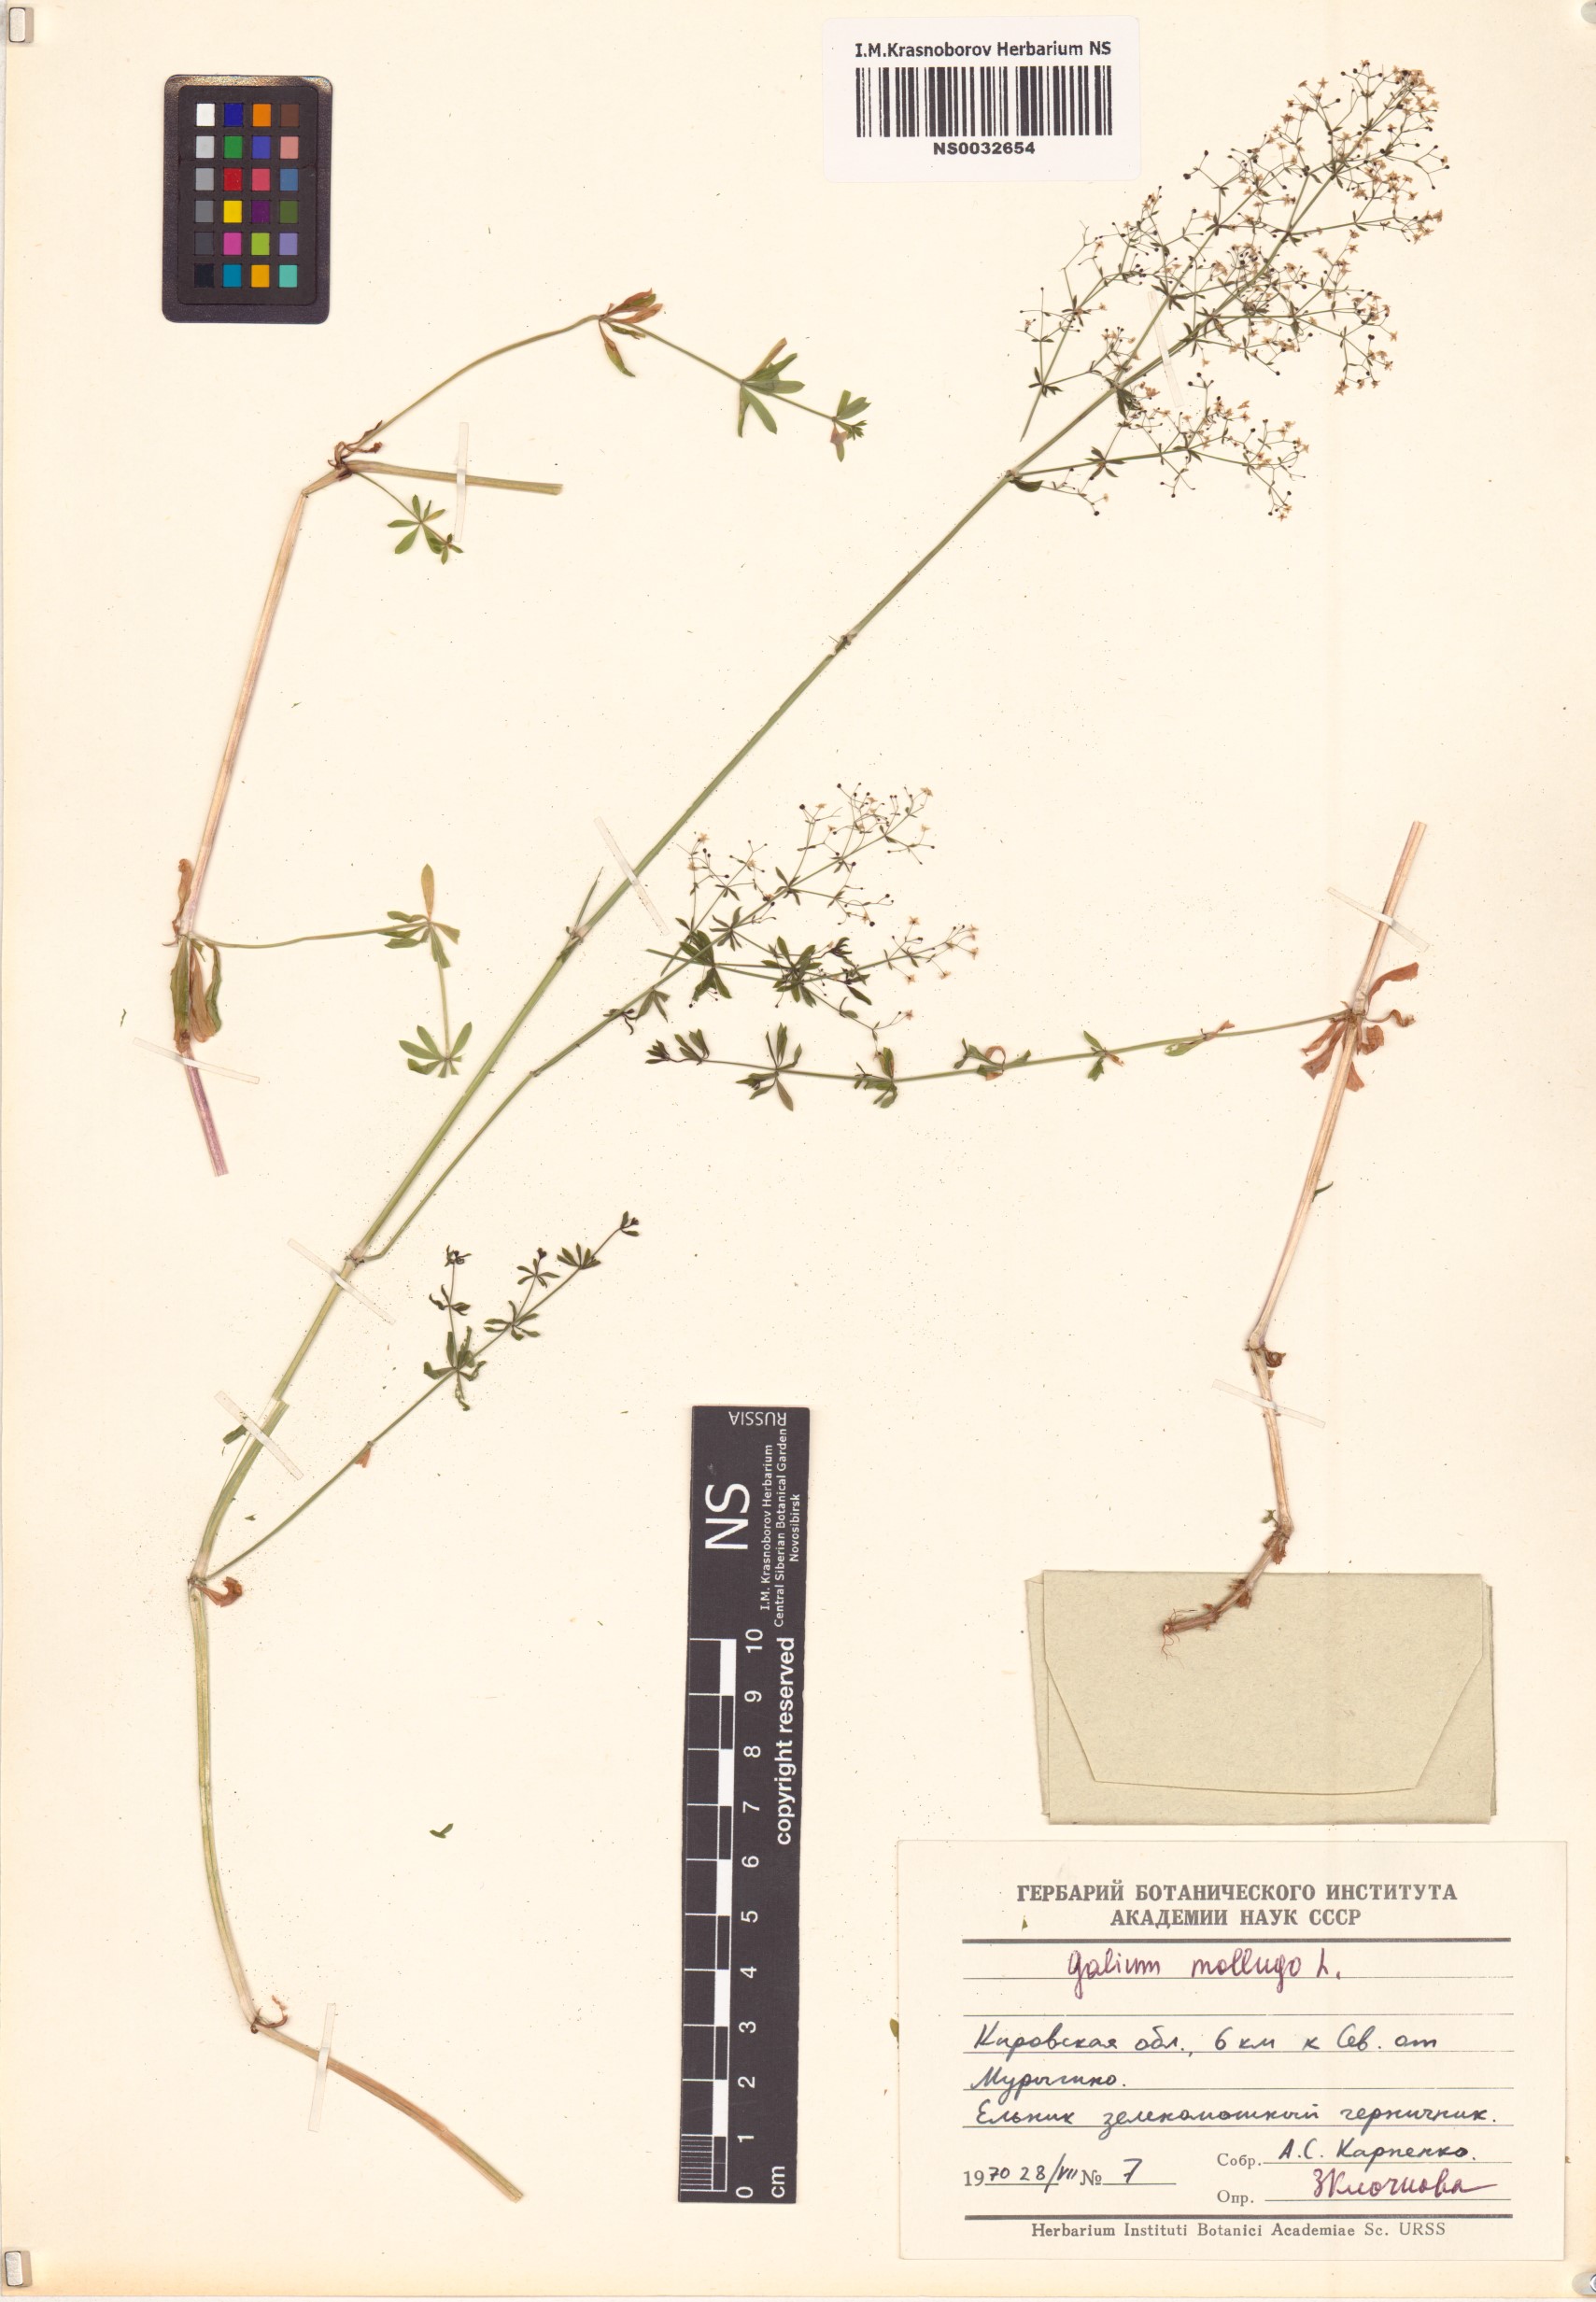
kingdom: Plantae
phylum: Tracheophyta
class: Magnoliopsida
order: Gentianales
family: Rubiaceae
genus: Galium
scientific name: Galium mollugo
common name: Hedge bedstraw
